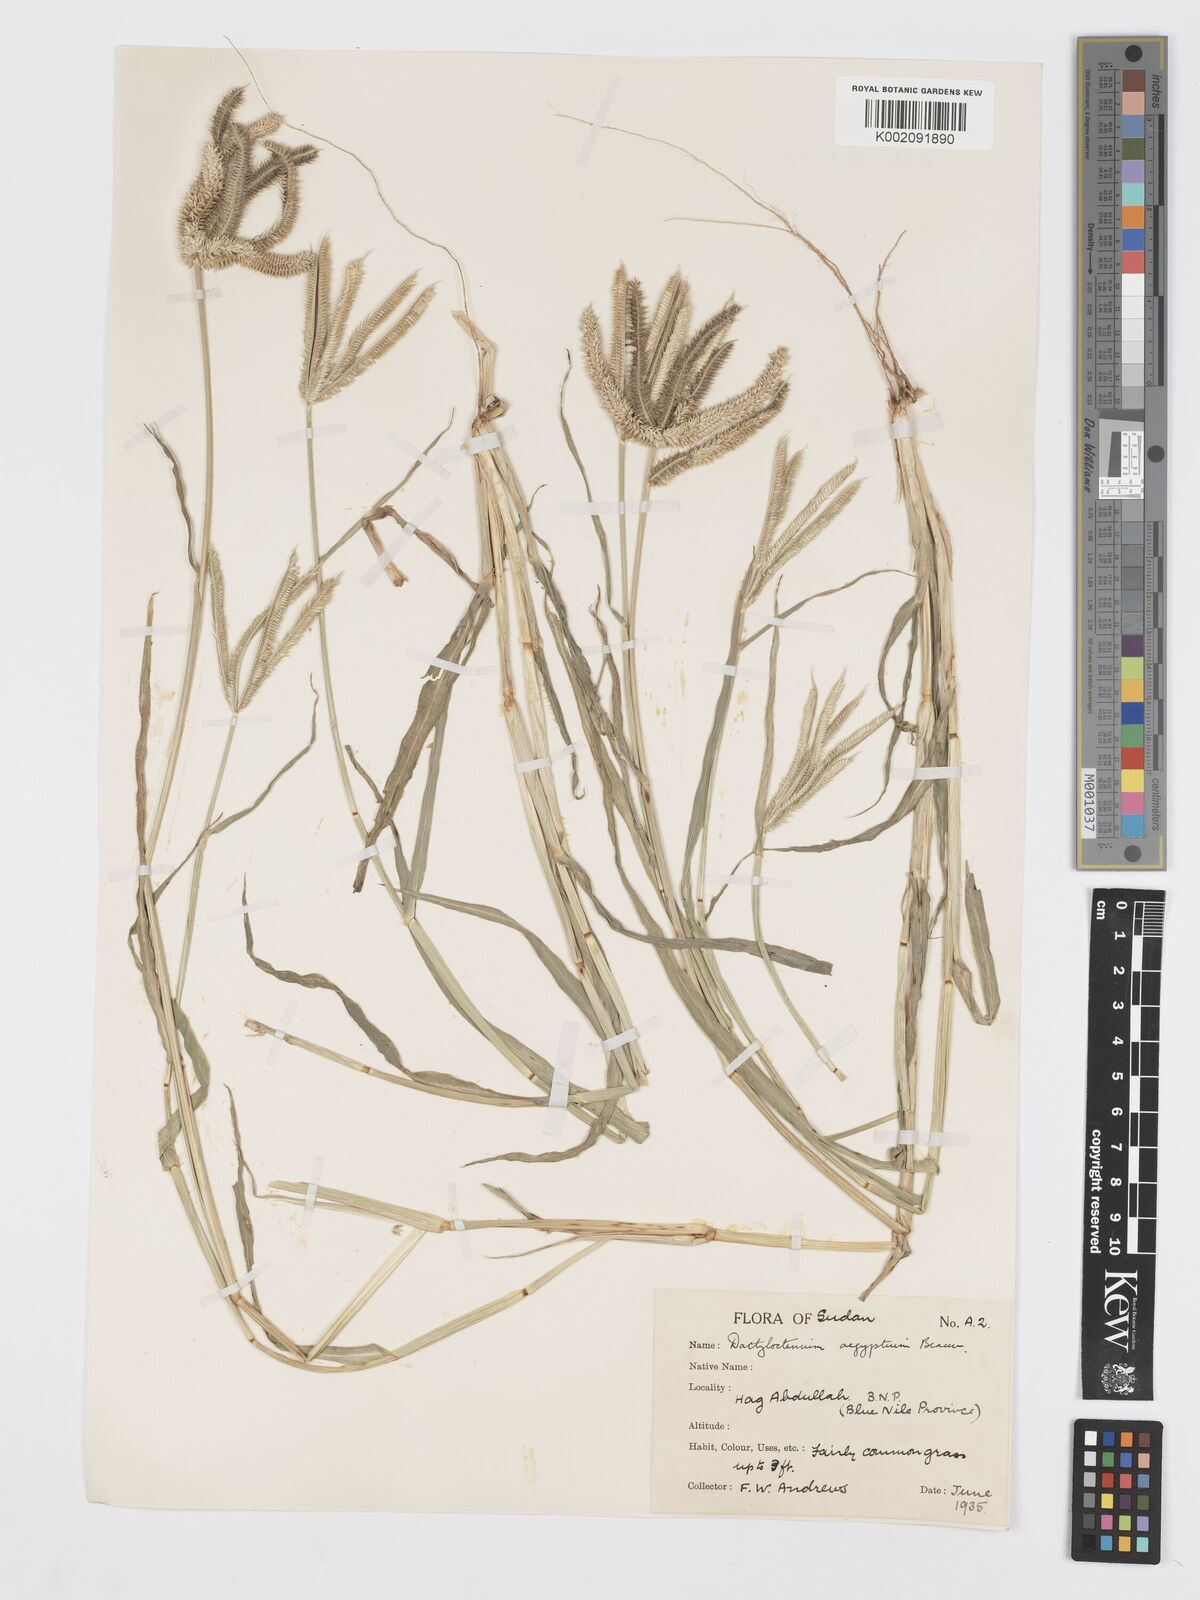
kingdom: Plantae
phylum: Tracheophyta
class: Liliopsida
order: Poales
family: Poaceae
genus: Dactyloctenium
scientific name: Dactyloctenium aegyptium
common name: Egyptian grass
